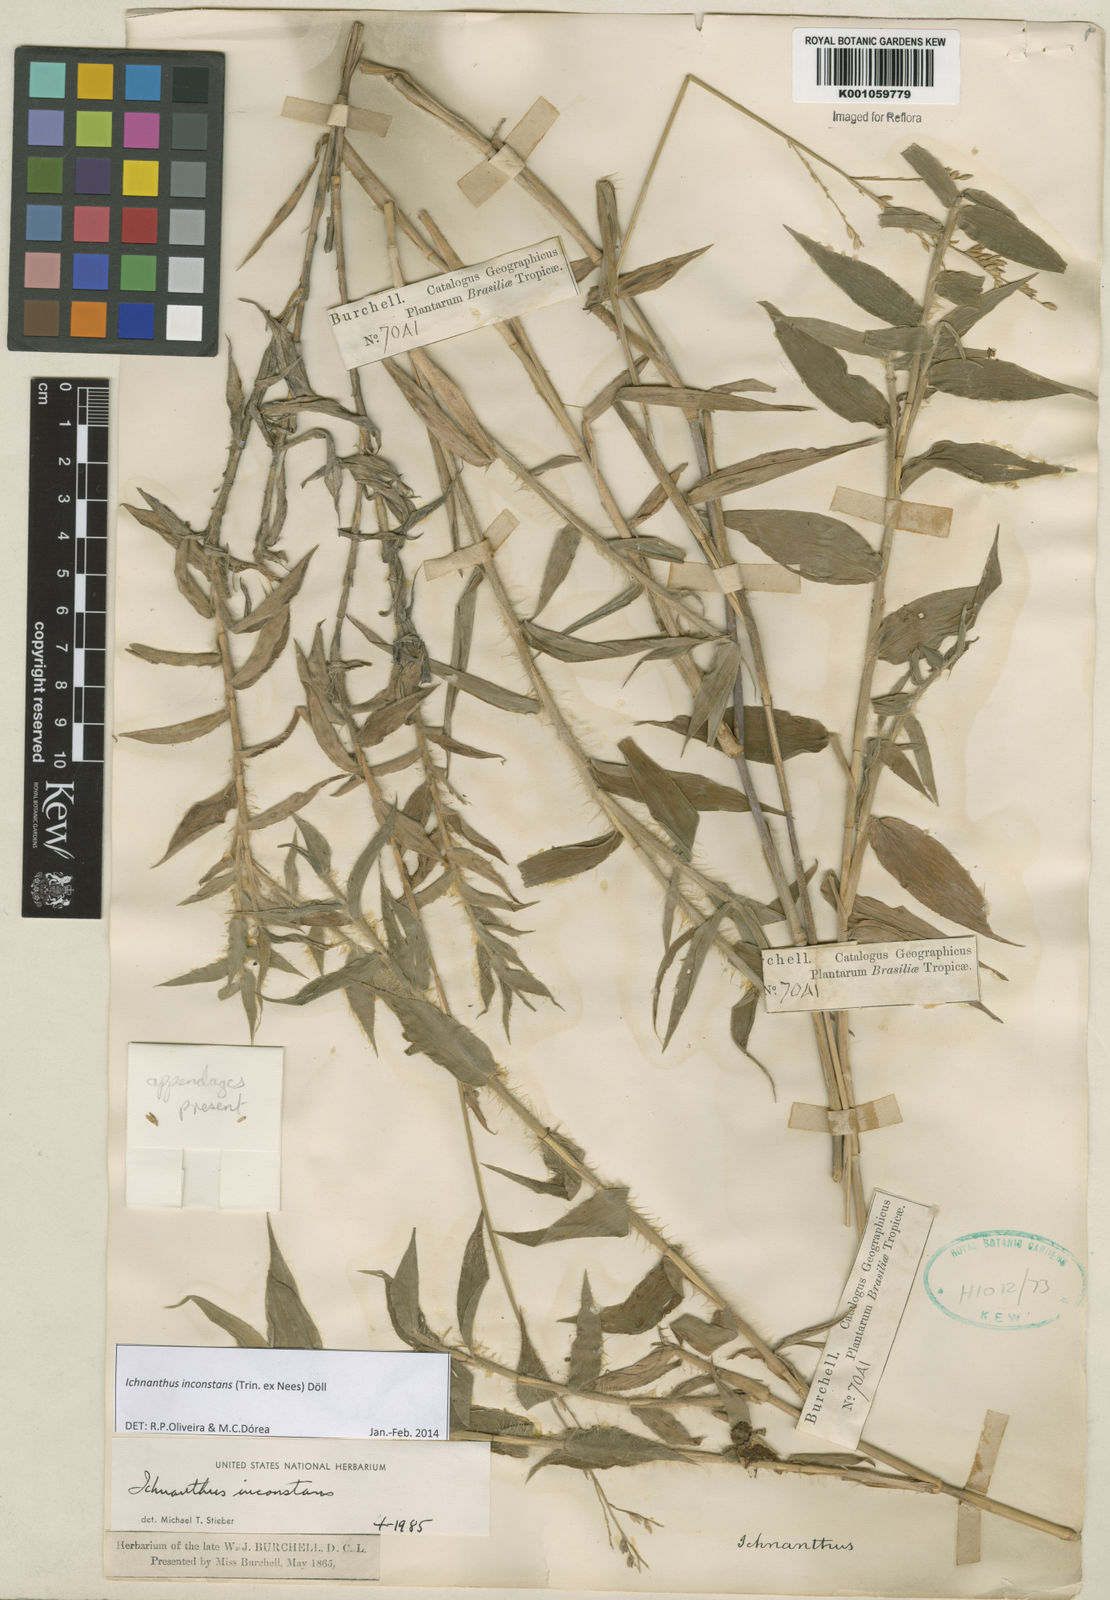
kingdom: Plantae
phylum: Tracheophyta
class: Liliopsida
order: Poales
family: Poaceae
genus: Ichnanthus
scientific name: Ichnanthus
